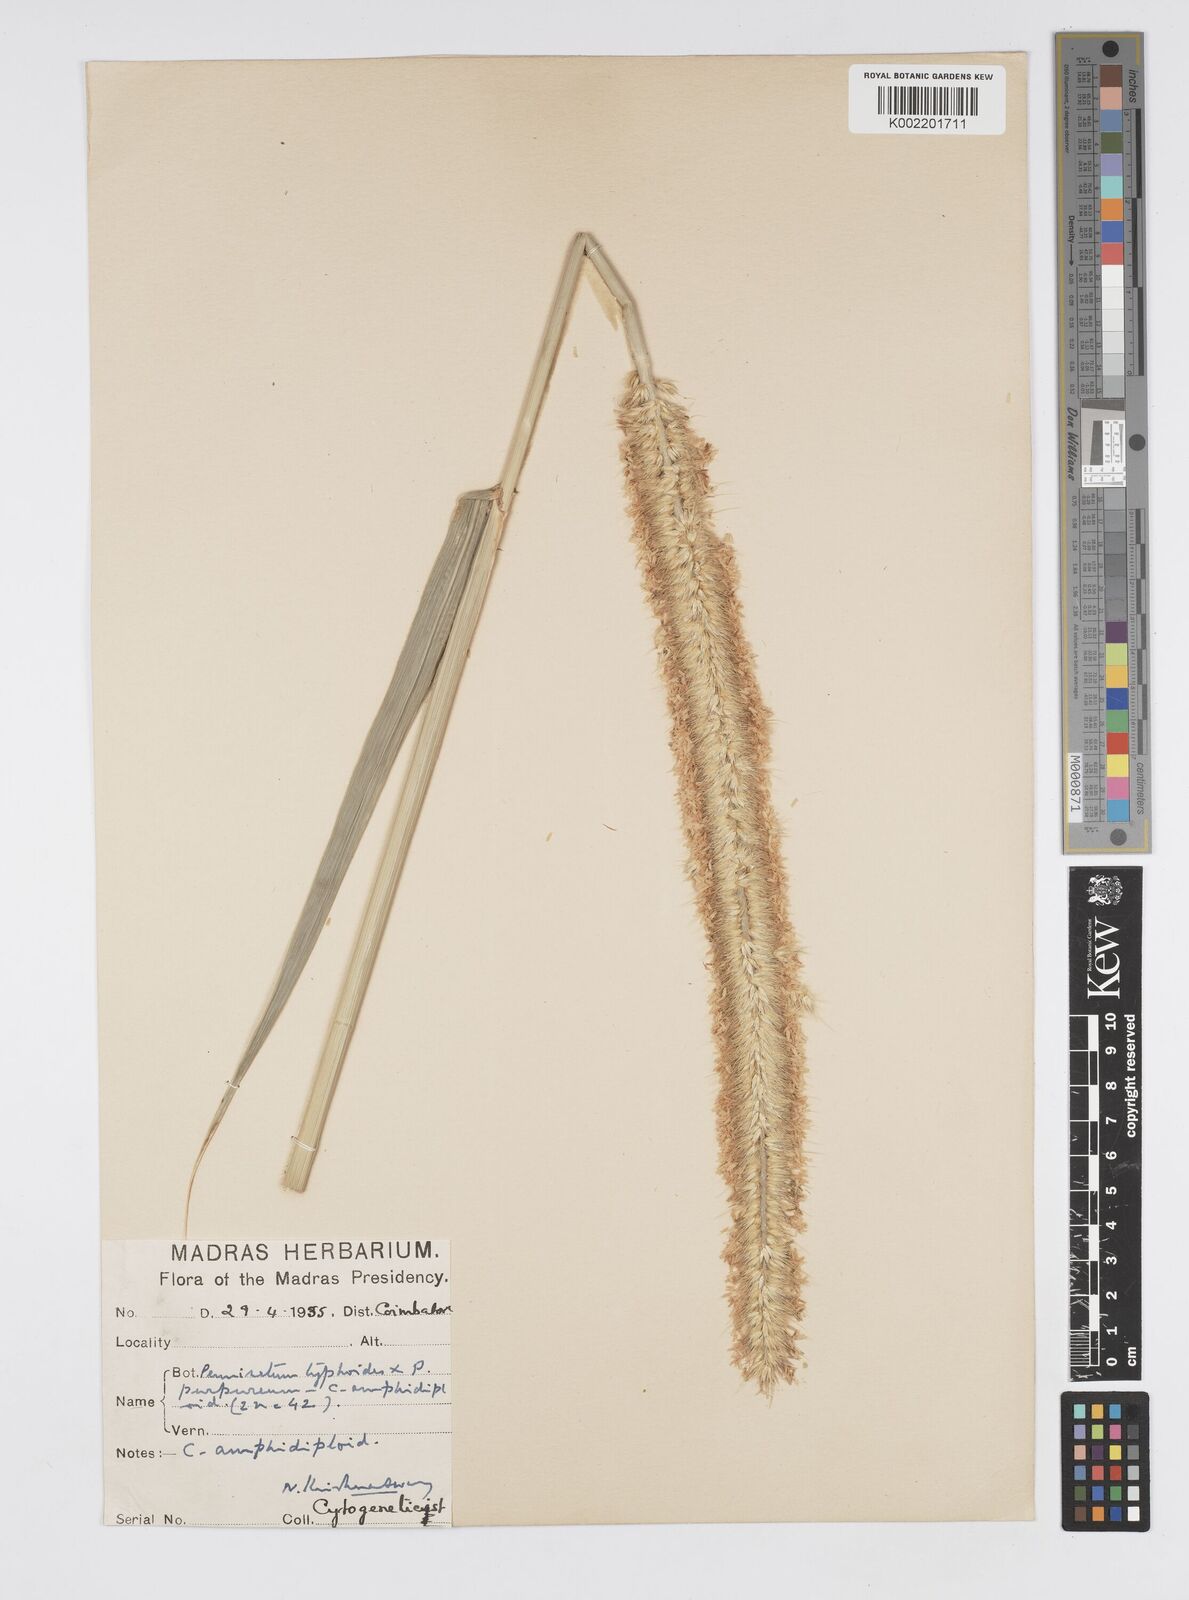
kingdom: Plantae
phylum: Tracheophyta
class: Liliopsida
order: Poales
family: Poaceae
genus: Cenchrus
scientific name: Cenchrus purpureus
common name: Elephant grass
